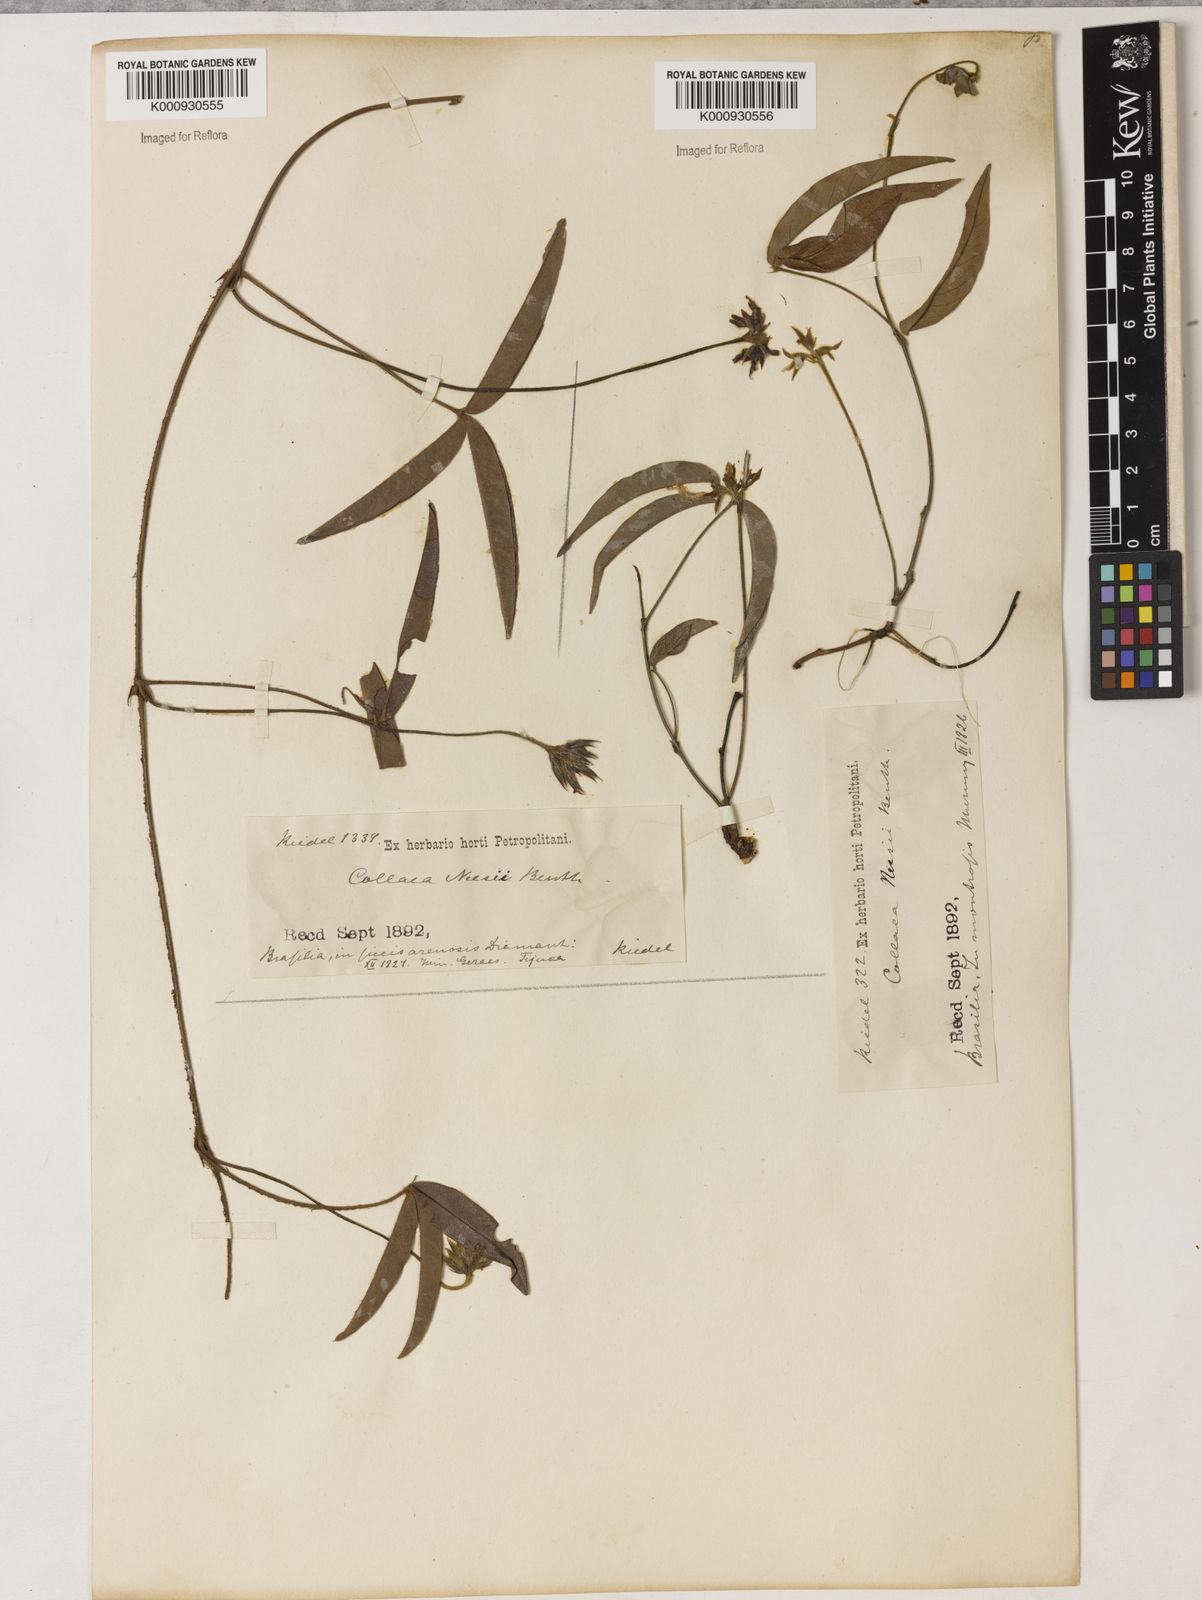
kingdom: Plantae
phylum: Tracheophyta
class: Magnoliopsida
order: Fabales
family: Fabaceae
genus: Betencourtia
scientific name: Betencourtia martii
